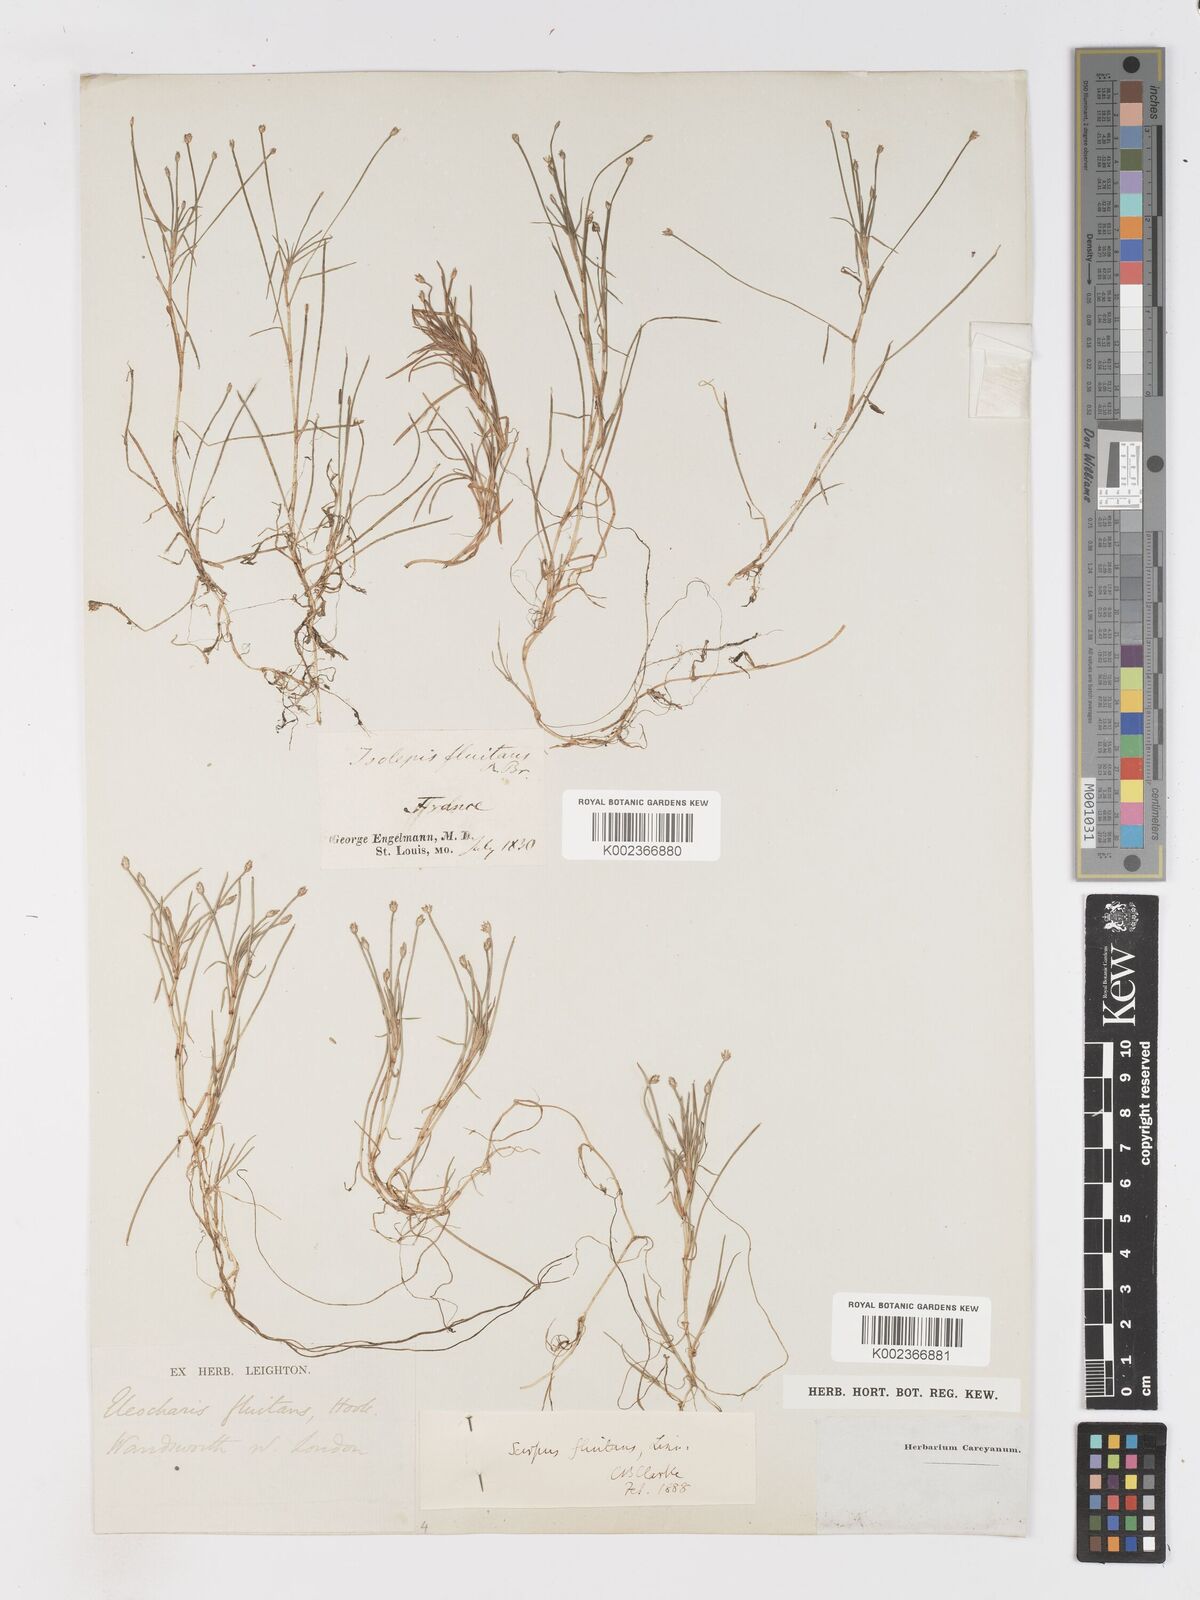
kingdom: Plantae
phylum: Tracheophyta
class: Liliopsida
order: Poales
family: Cyperaceae
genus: Isolepis
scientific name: Isolepis fluitans
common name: Floating club-rush
